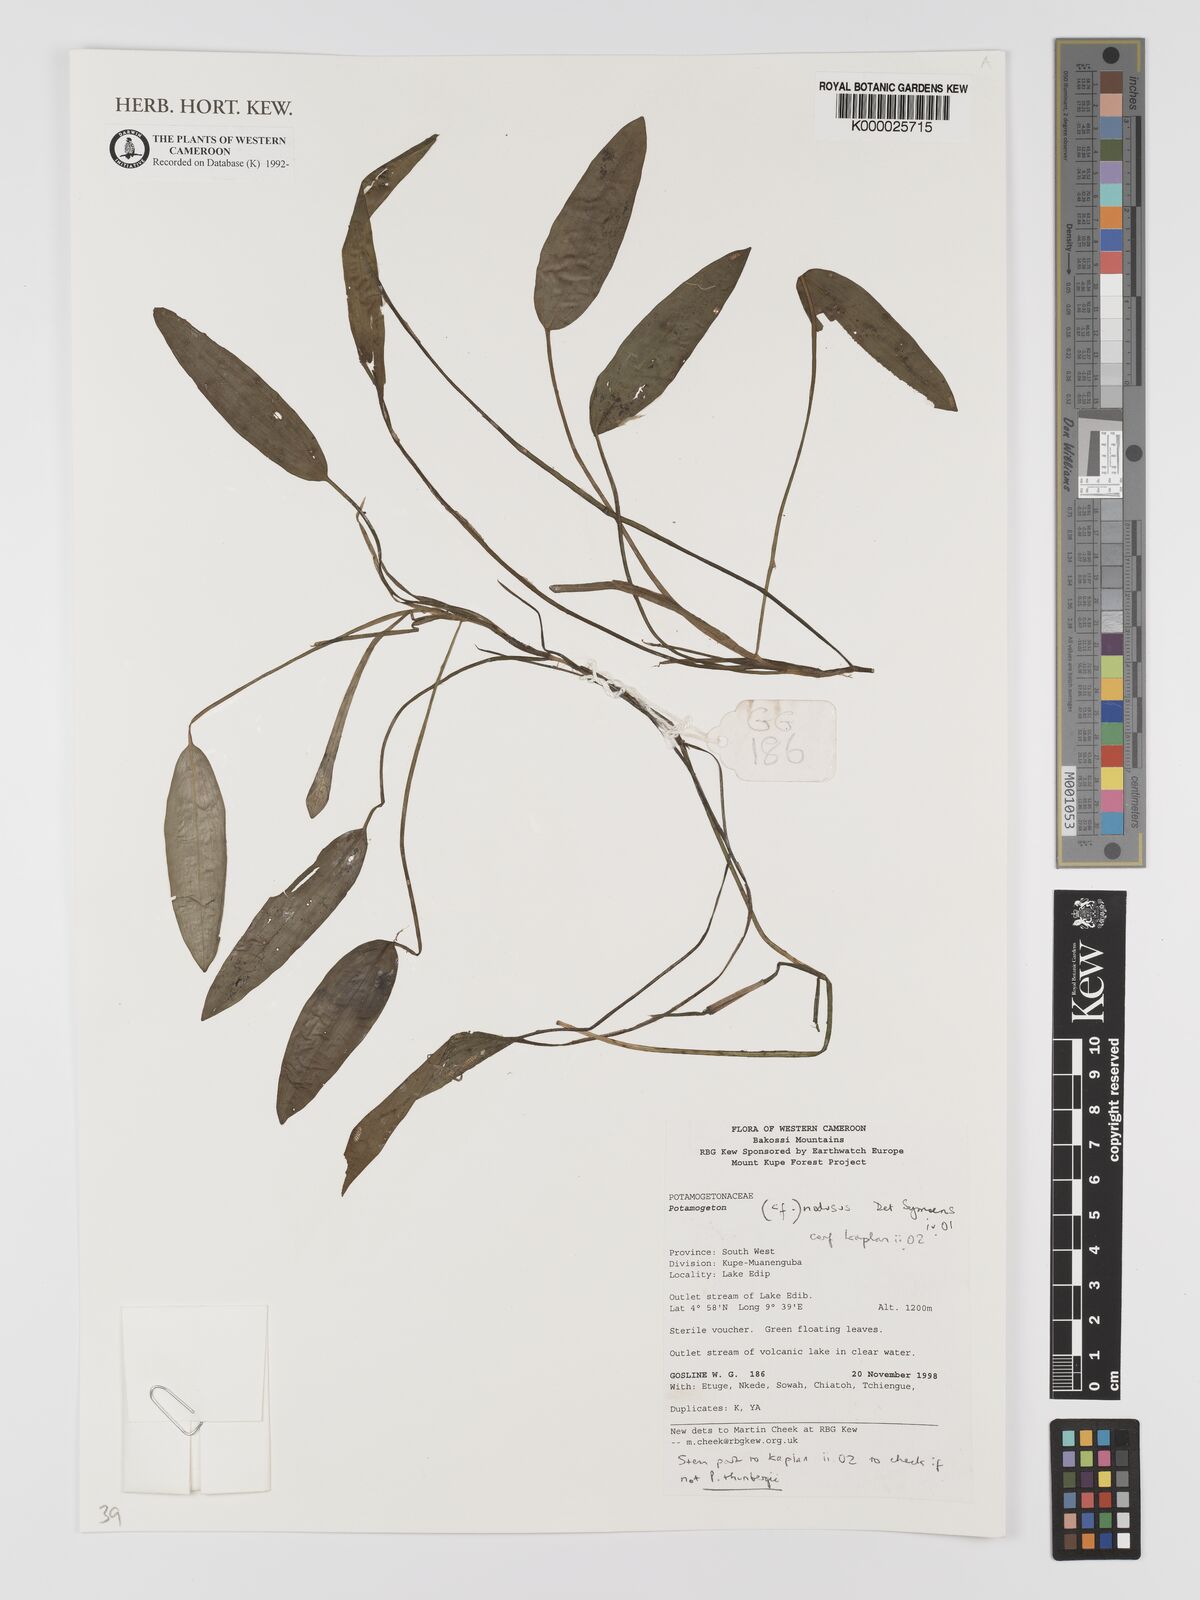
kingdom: Plantae
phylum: Tracheophyta
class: Liliopsida
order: Alismatales
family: Potamogetonaceae
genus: Potamogeton
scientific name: Potamogeton nodosus
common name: Loddon pondweed
